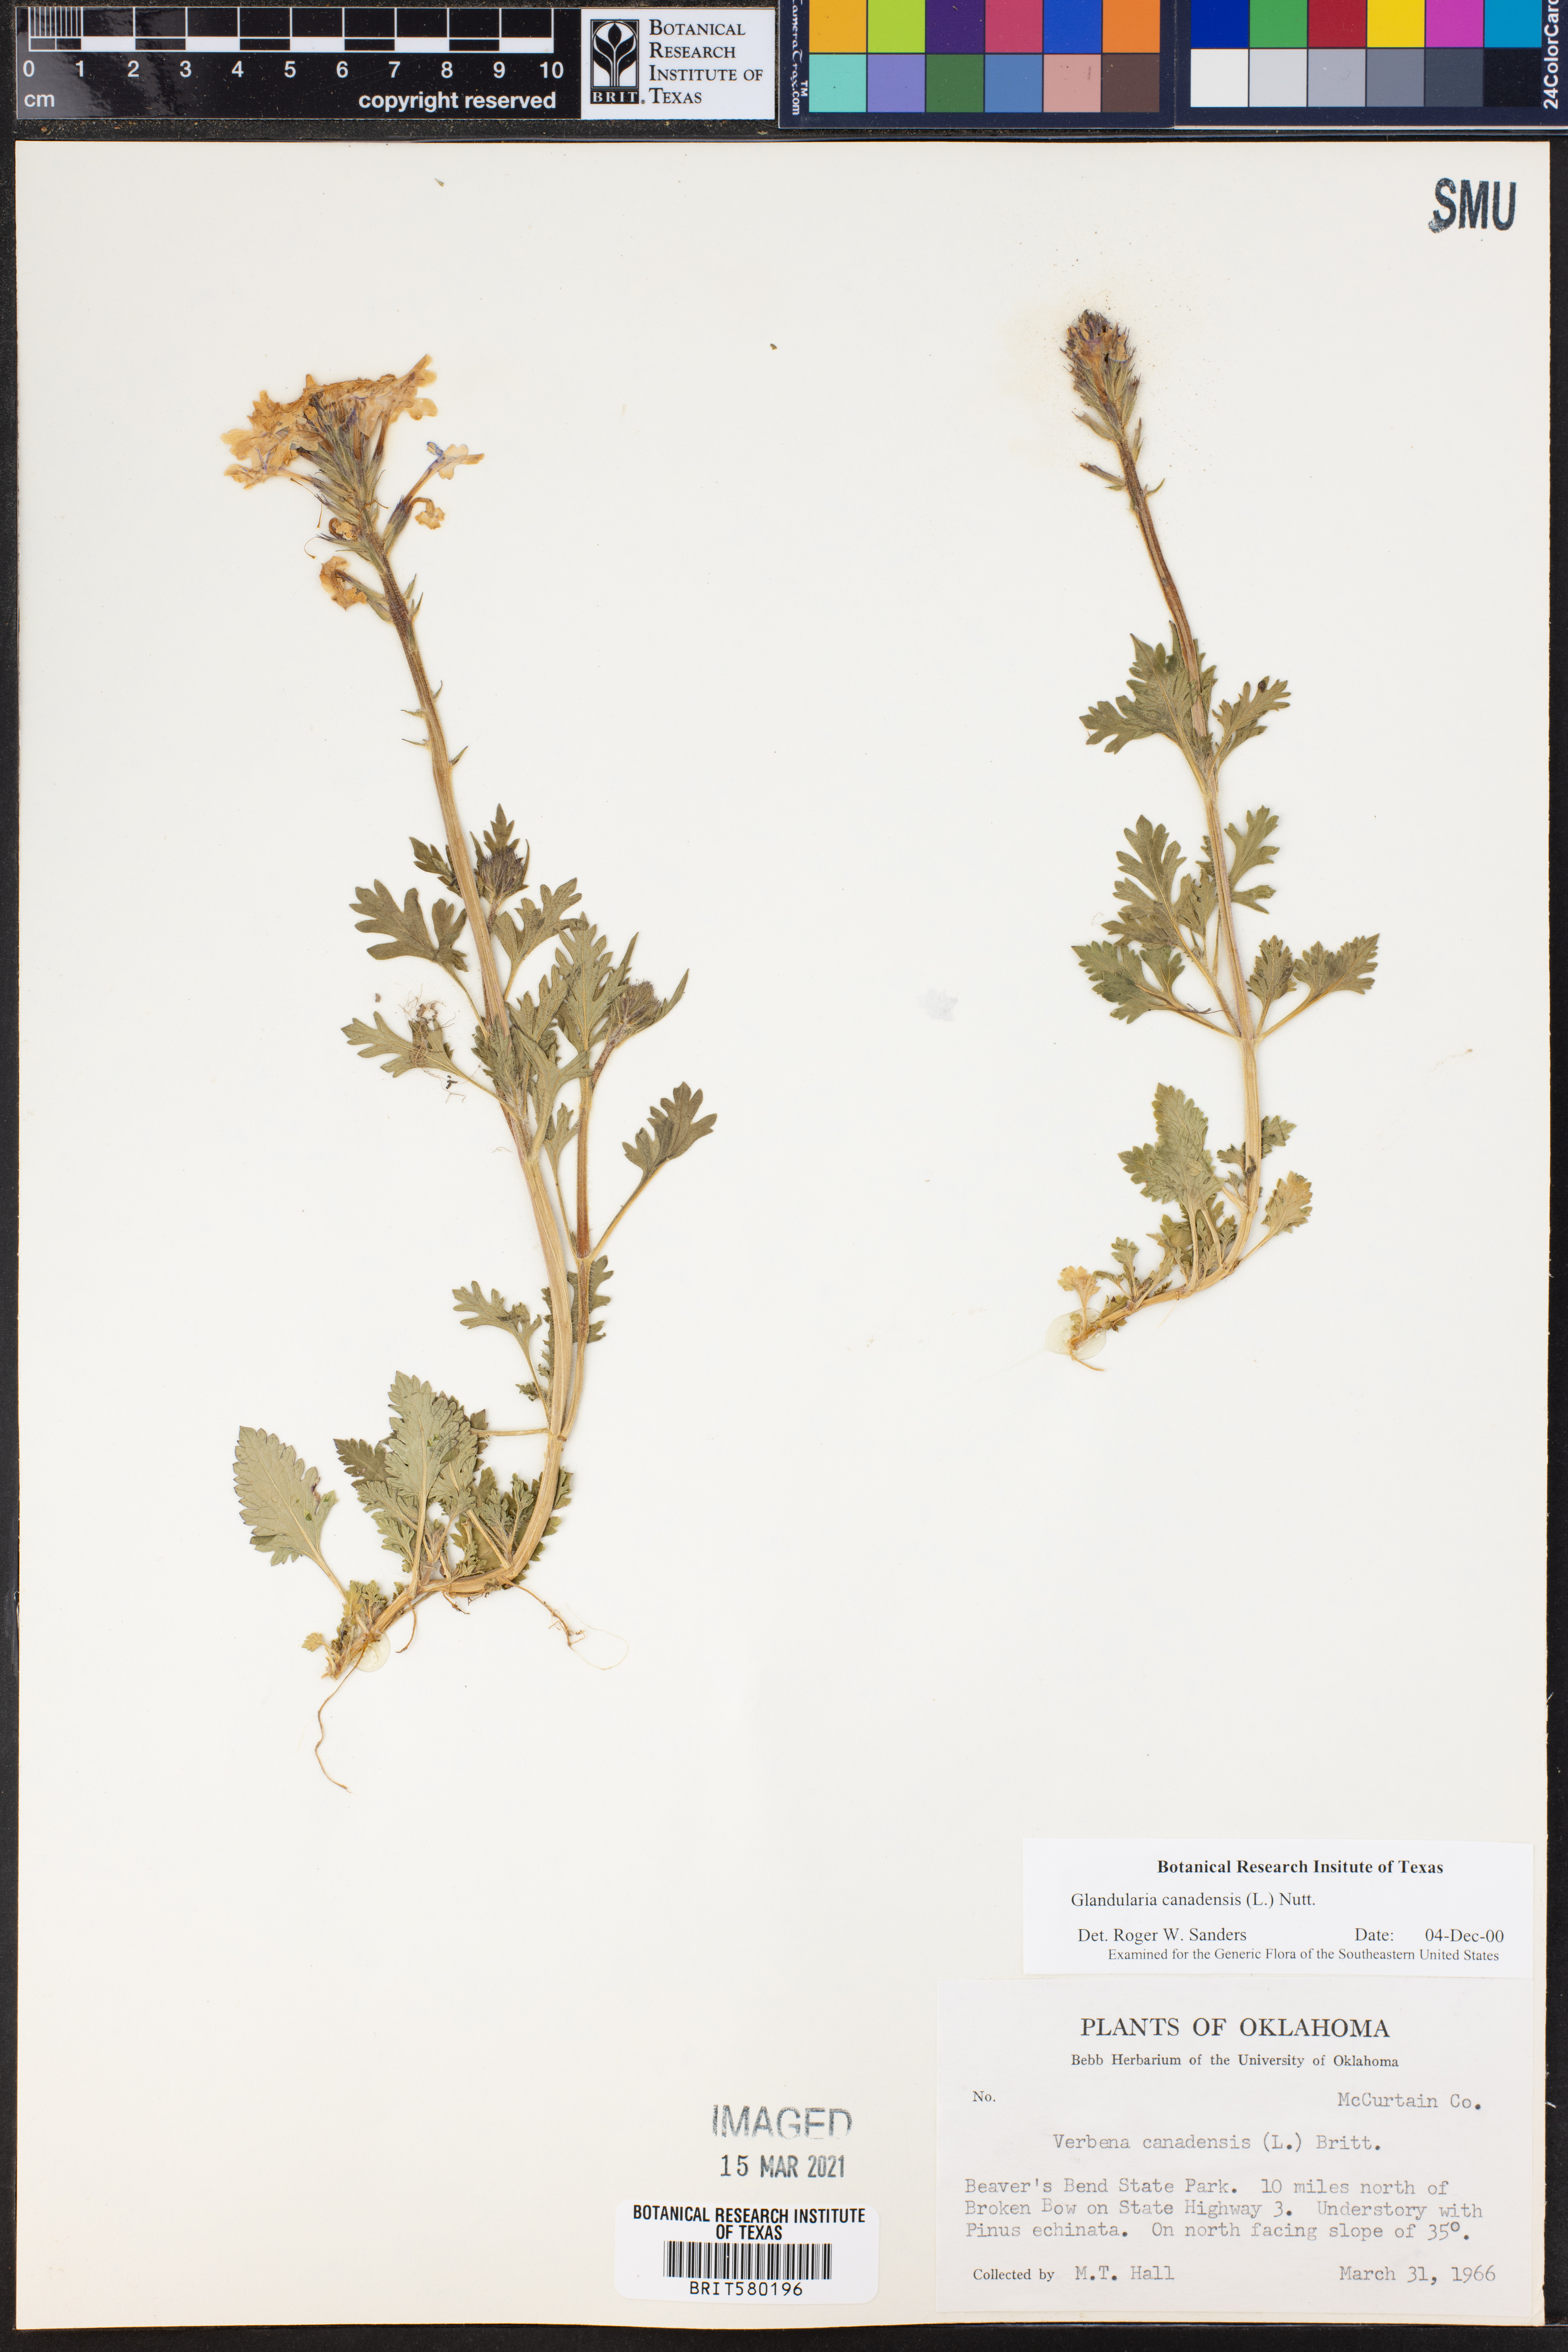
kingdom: Plantae
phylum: Tracheophyta
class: Magnoliopsida
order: Lamiales
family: Verbenaceae
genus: Verbena
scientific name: Verbena canadensis
